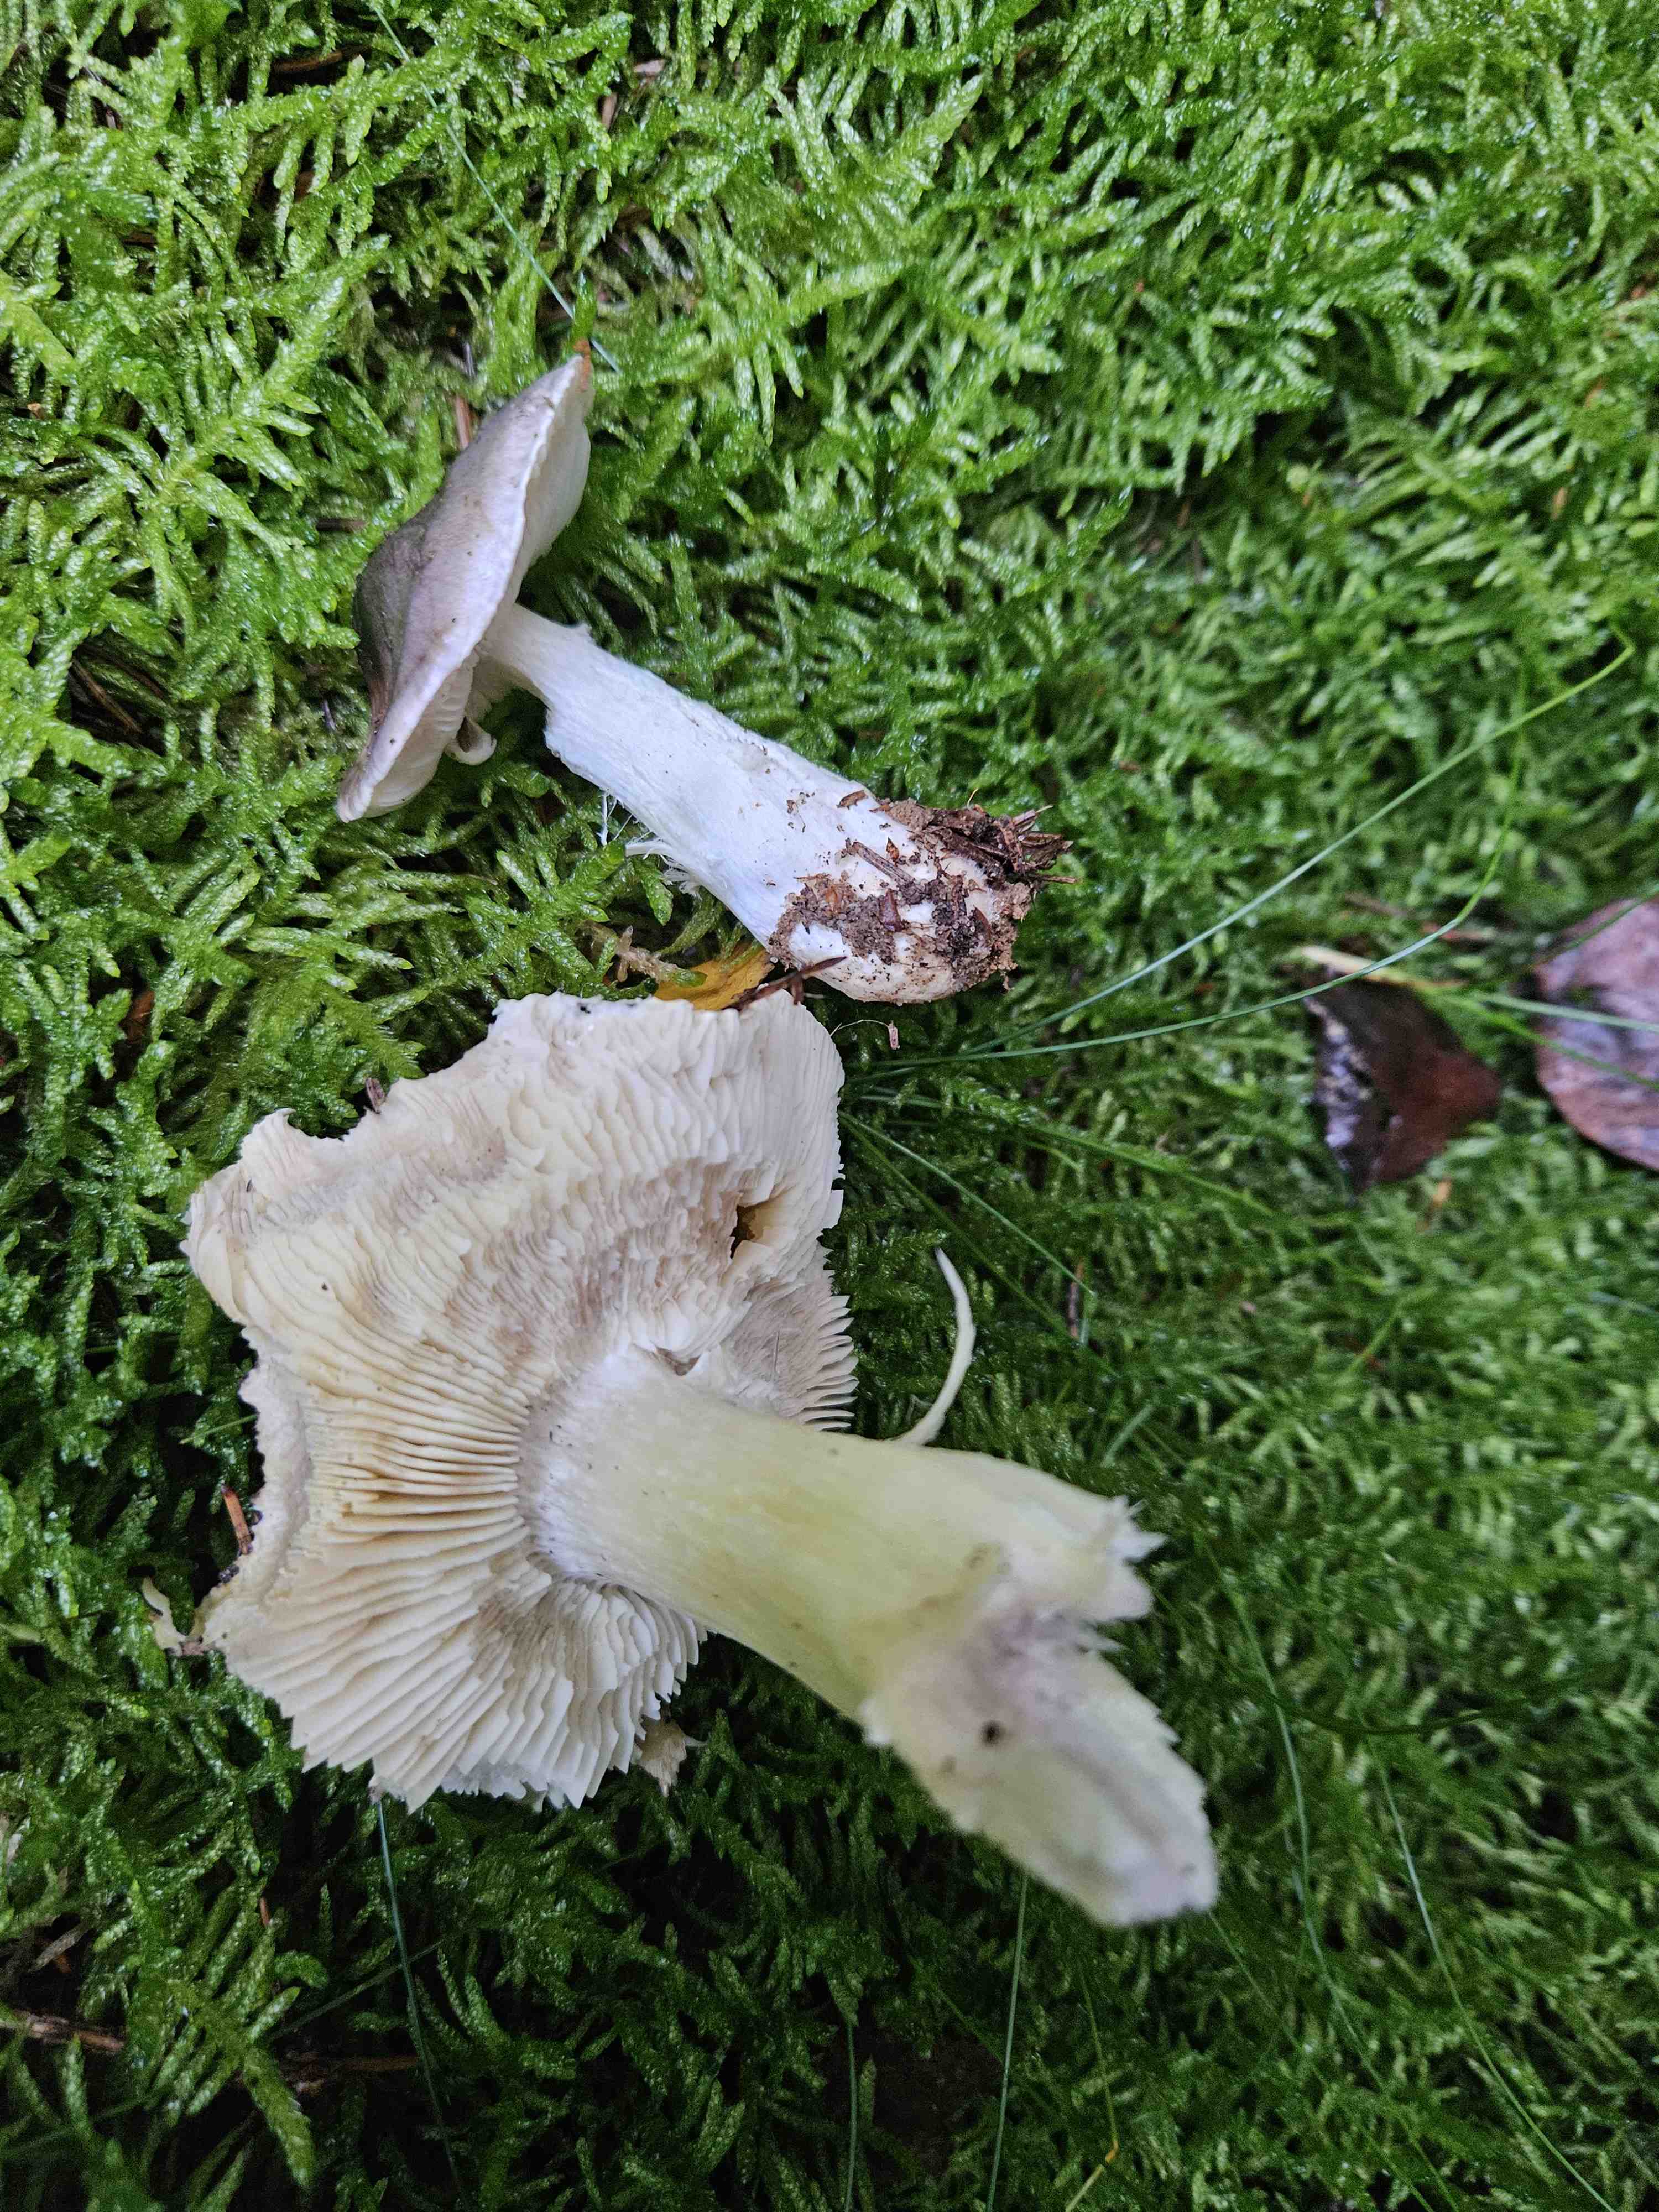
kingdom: Fungi
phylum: Basidiomycota
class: Agaricomycetes
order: Agaricales
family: Tricholomataceae
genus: Tricholoma
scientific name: Tricholoma portentosum
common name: grå ridderhat
